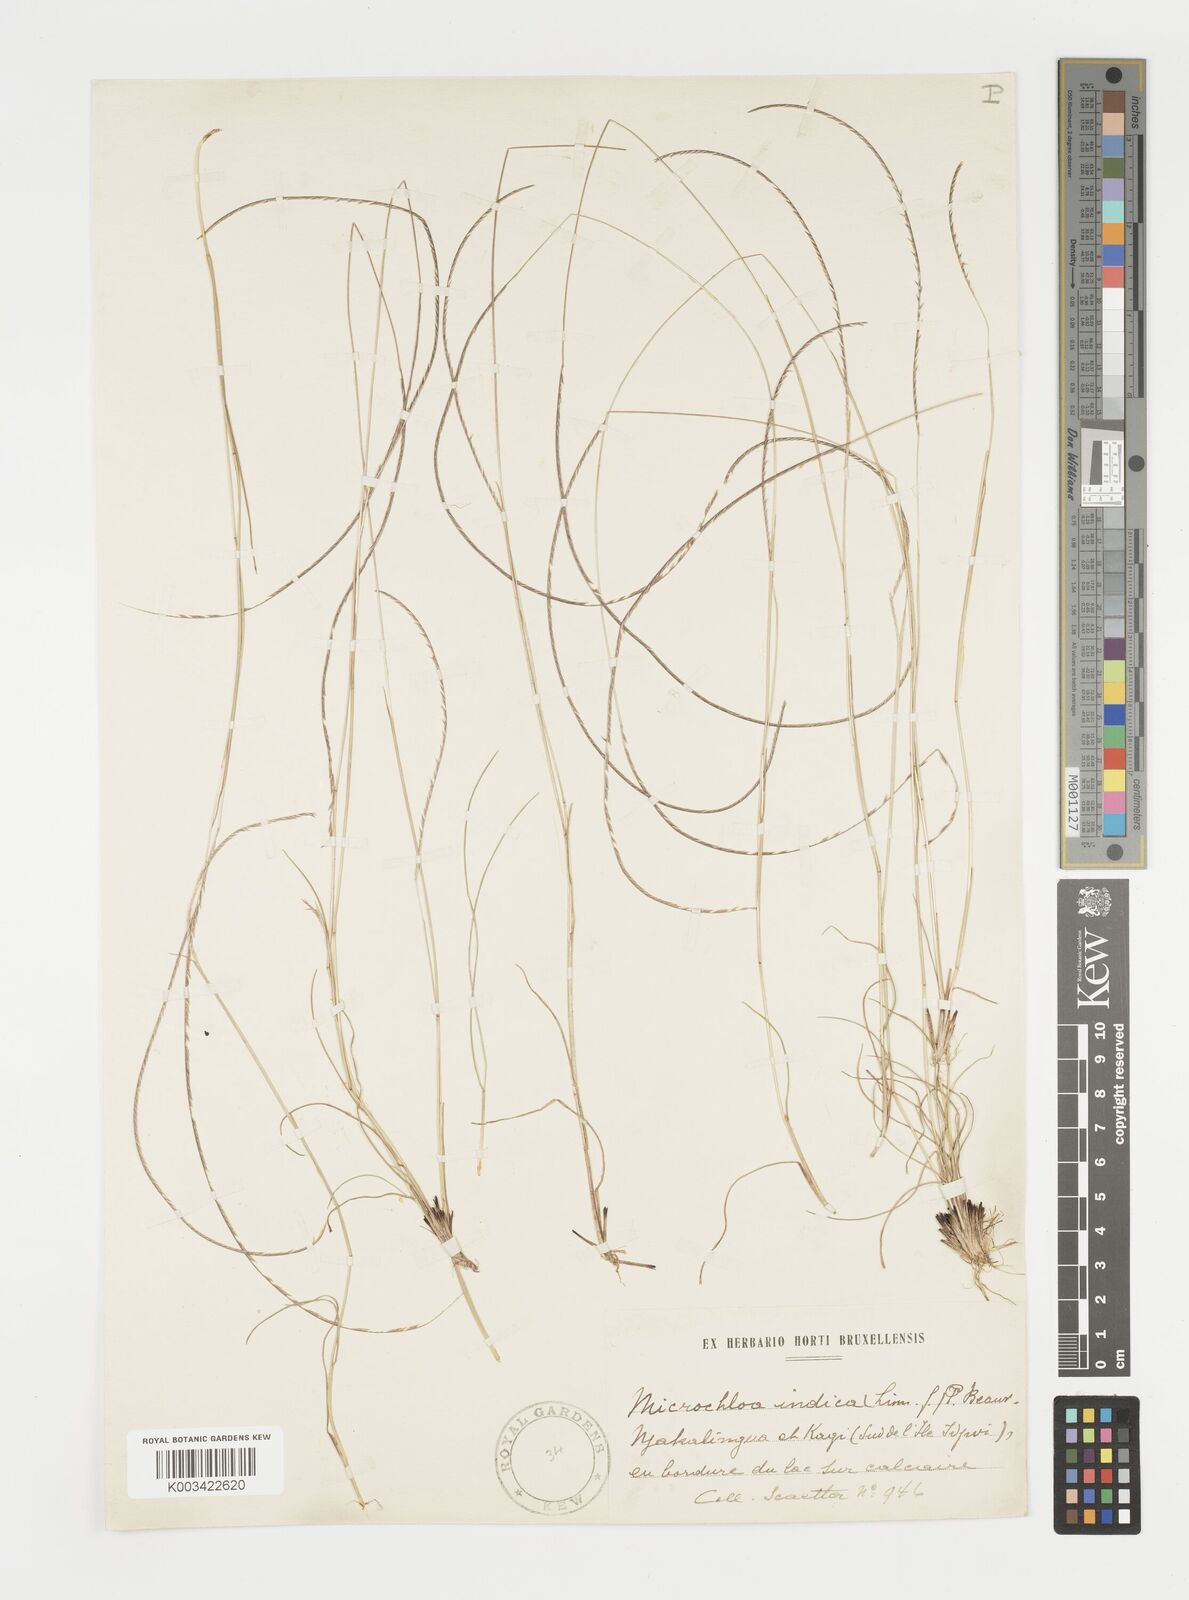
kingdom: Plantae
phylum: Tracheophyta
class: Liliopsida
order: Poales
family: Poaceae
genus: Microchloa
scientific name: Microchloa kunthii
